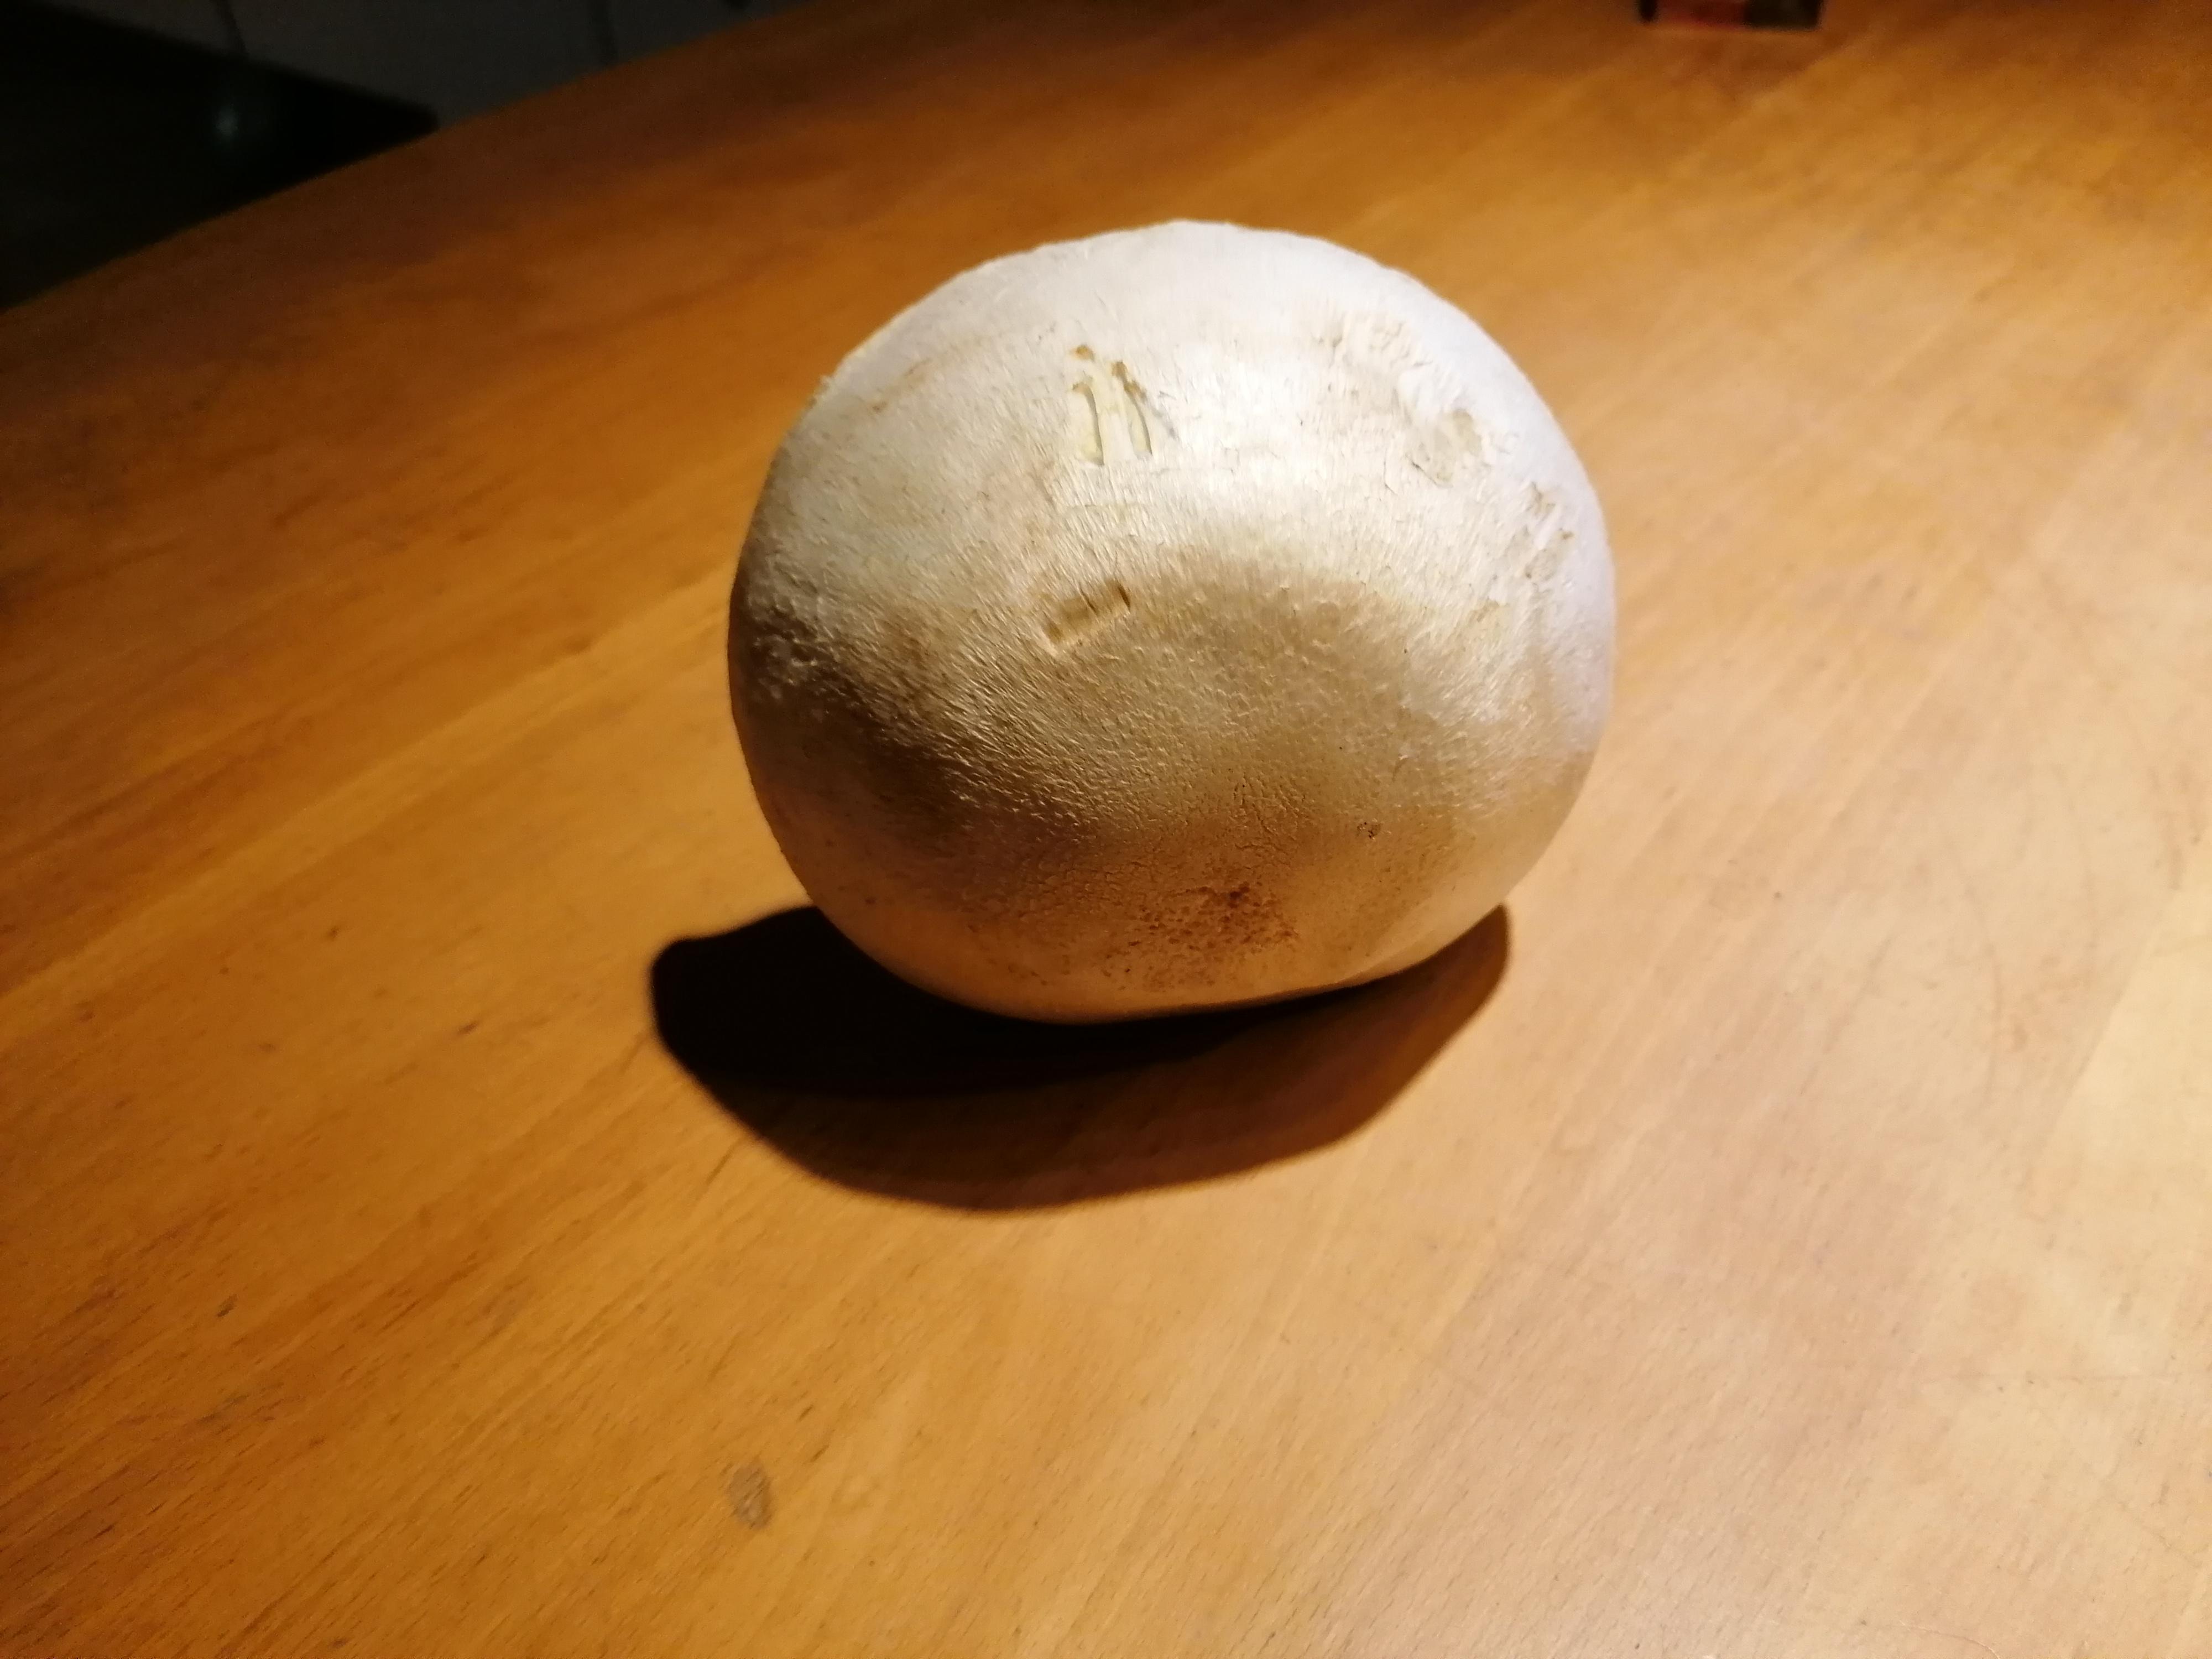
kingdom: Fungi
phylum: Basidiomycota
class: Agaricomycetes
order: Agaricales
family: Agaricaceae
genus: Agaricus
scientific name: Agaricus arvensis
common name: ager-champignon
